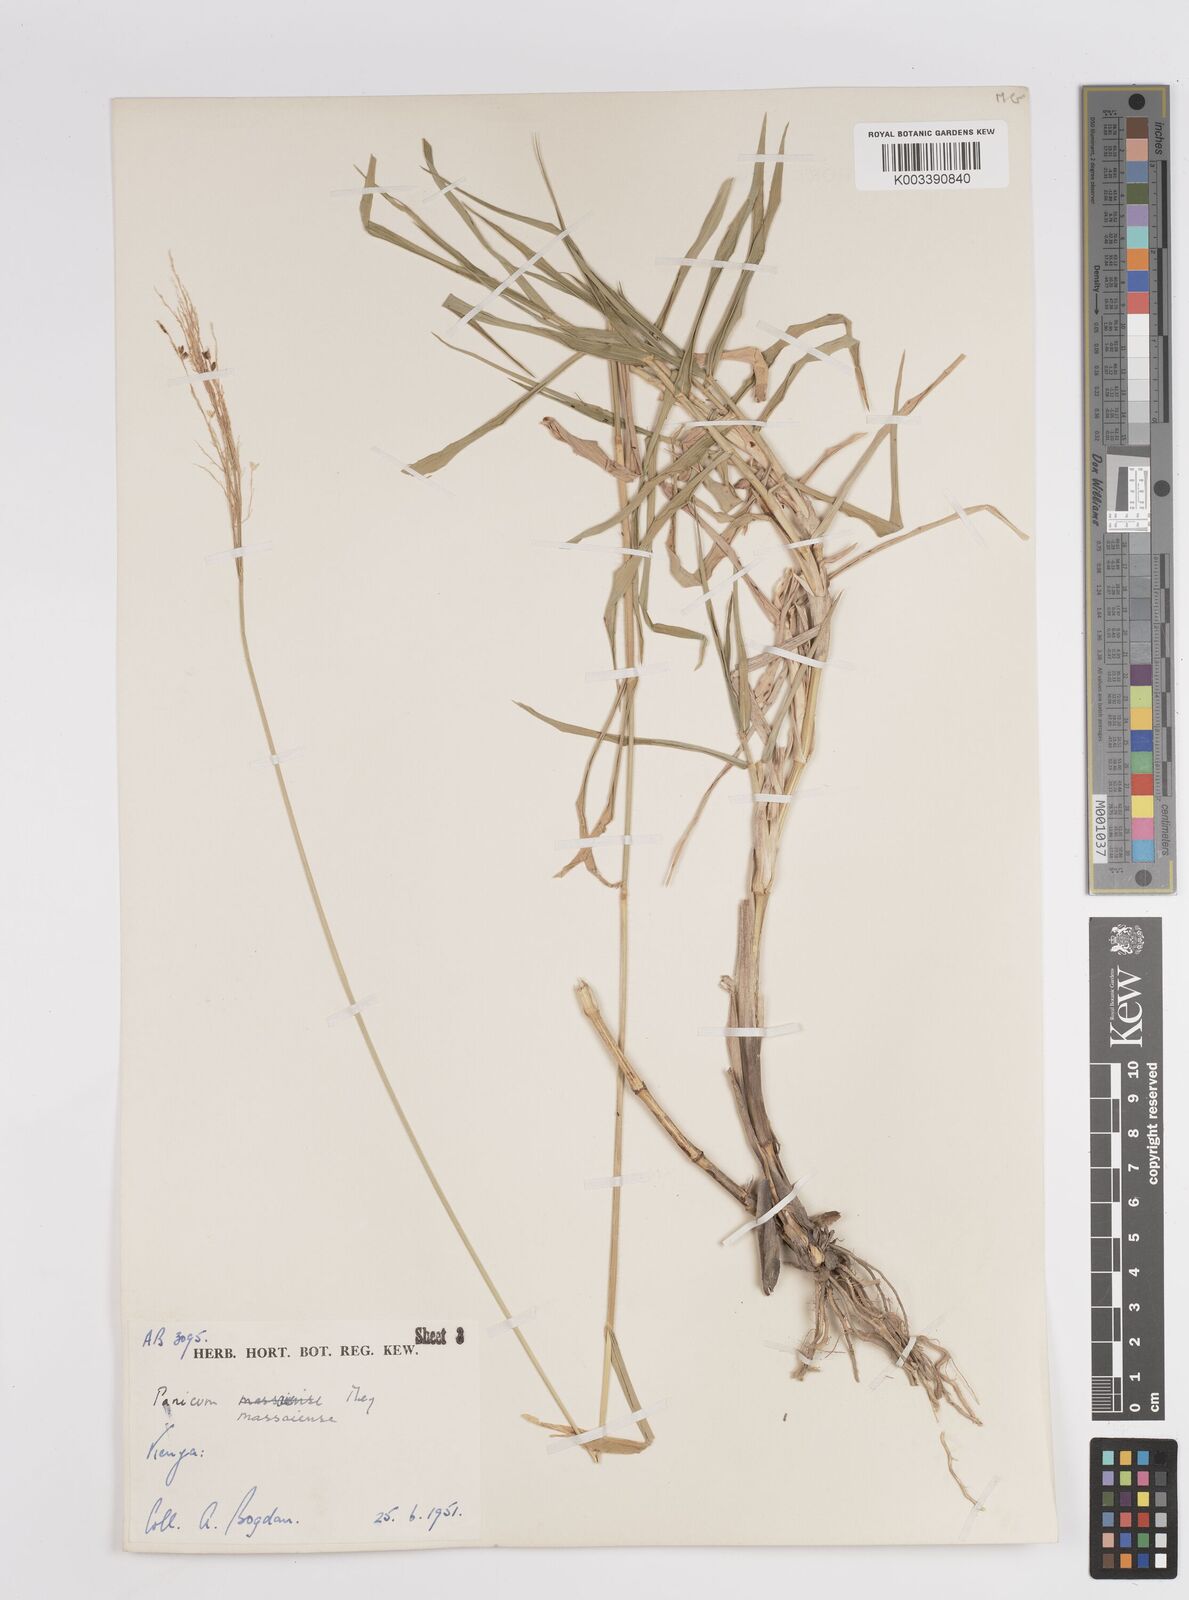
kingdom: Plantae
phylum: Tracheophyta
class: Liliopsida
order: Poales
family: Poaceae
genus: Panicum
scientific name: Panicum coloratum
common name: Kleingrass
